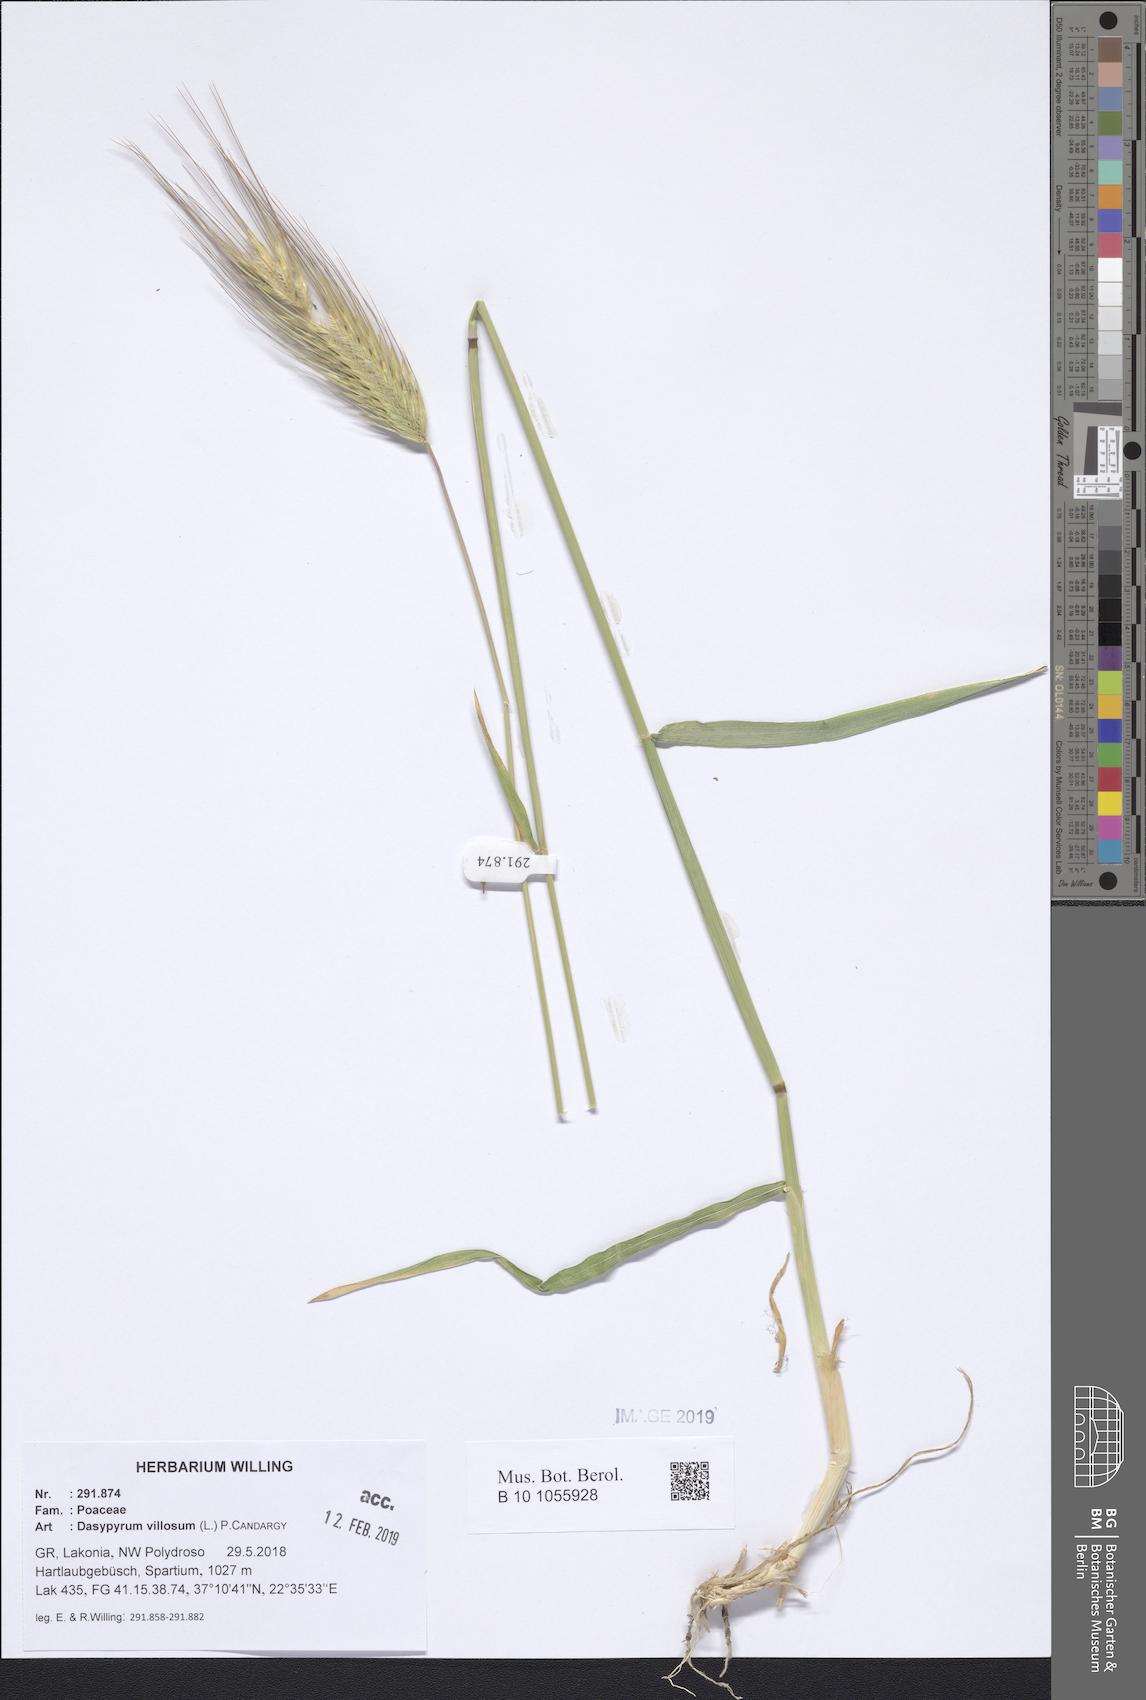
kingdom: Plantae
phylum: Tracheophyta
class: Liliopsida
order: Poales
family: Poaceae
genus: Dasypyrum
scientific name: Dasypyrum villosum
